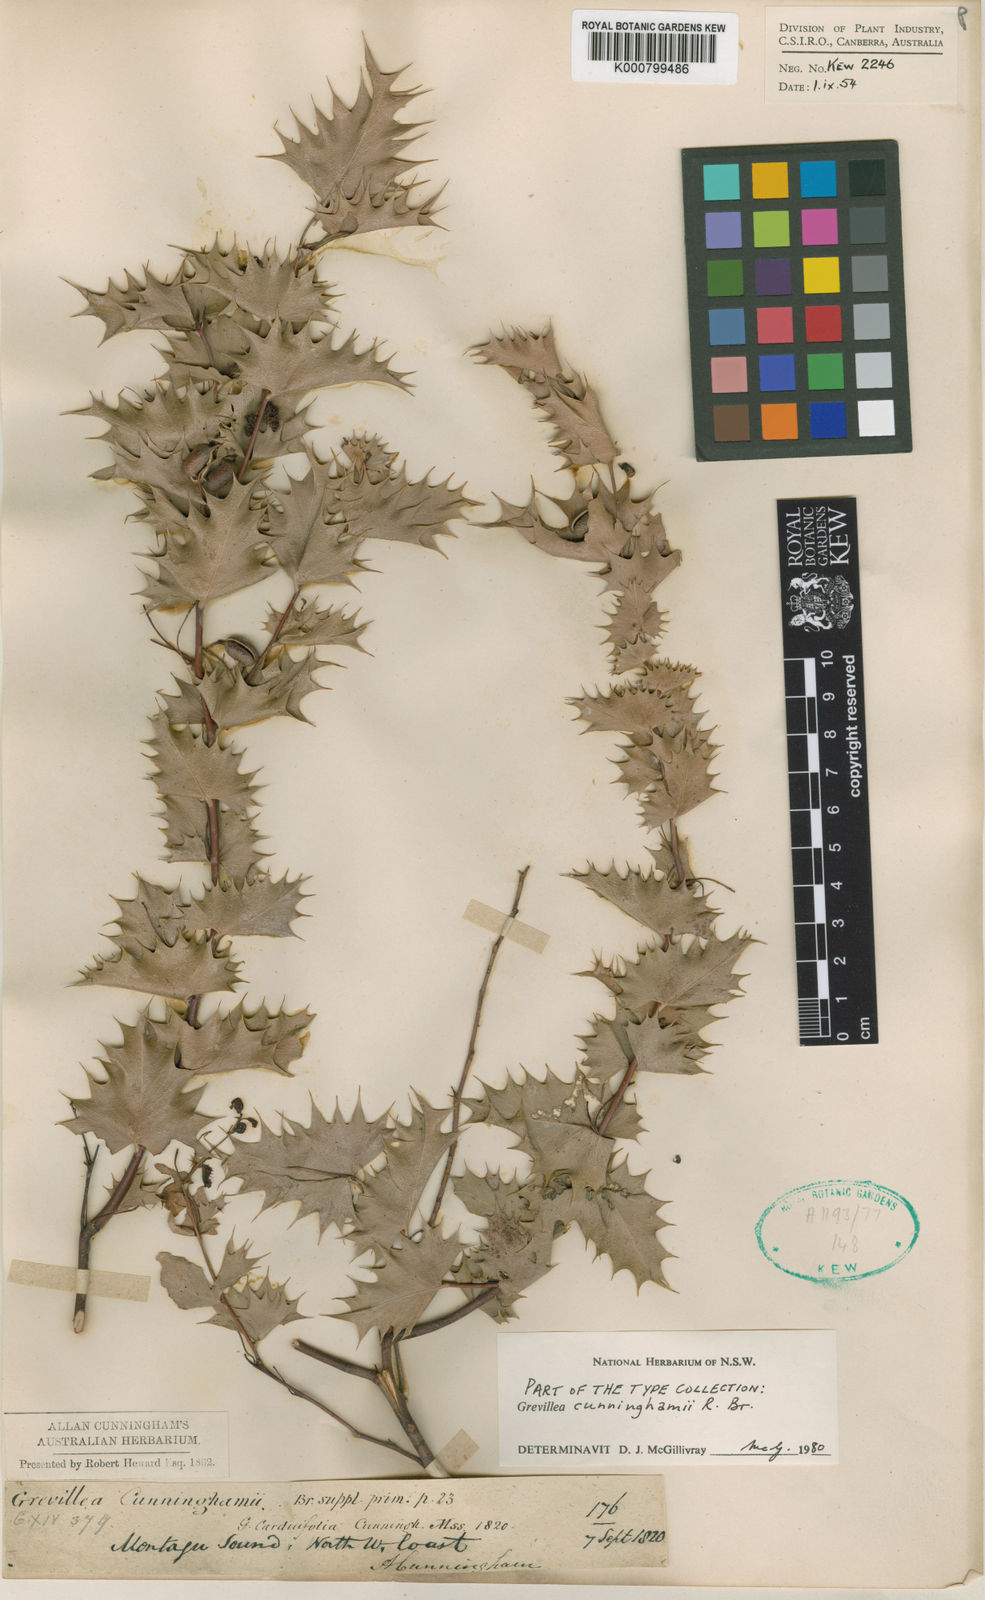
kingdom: Plantae
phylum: Tracheophyta
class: Magnoliopsida
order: Proteales
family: Proteaceae
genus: Grevillea
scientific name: Grevillea cunninghamii
